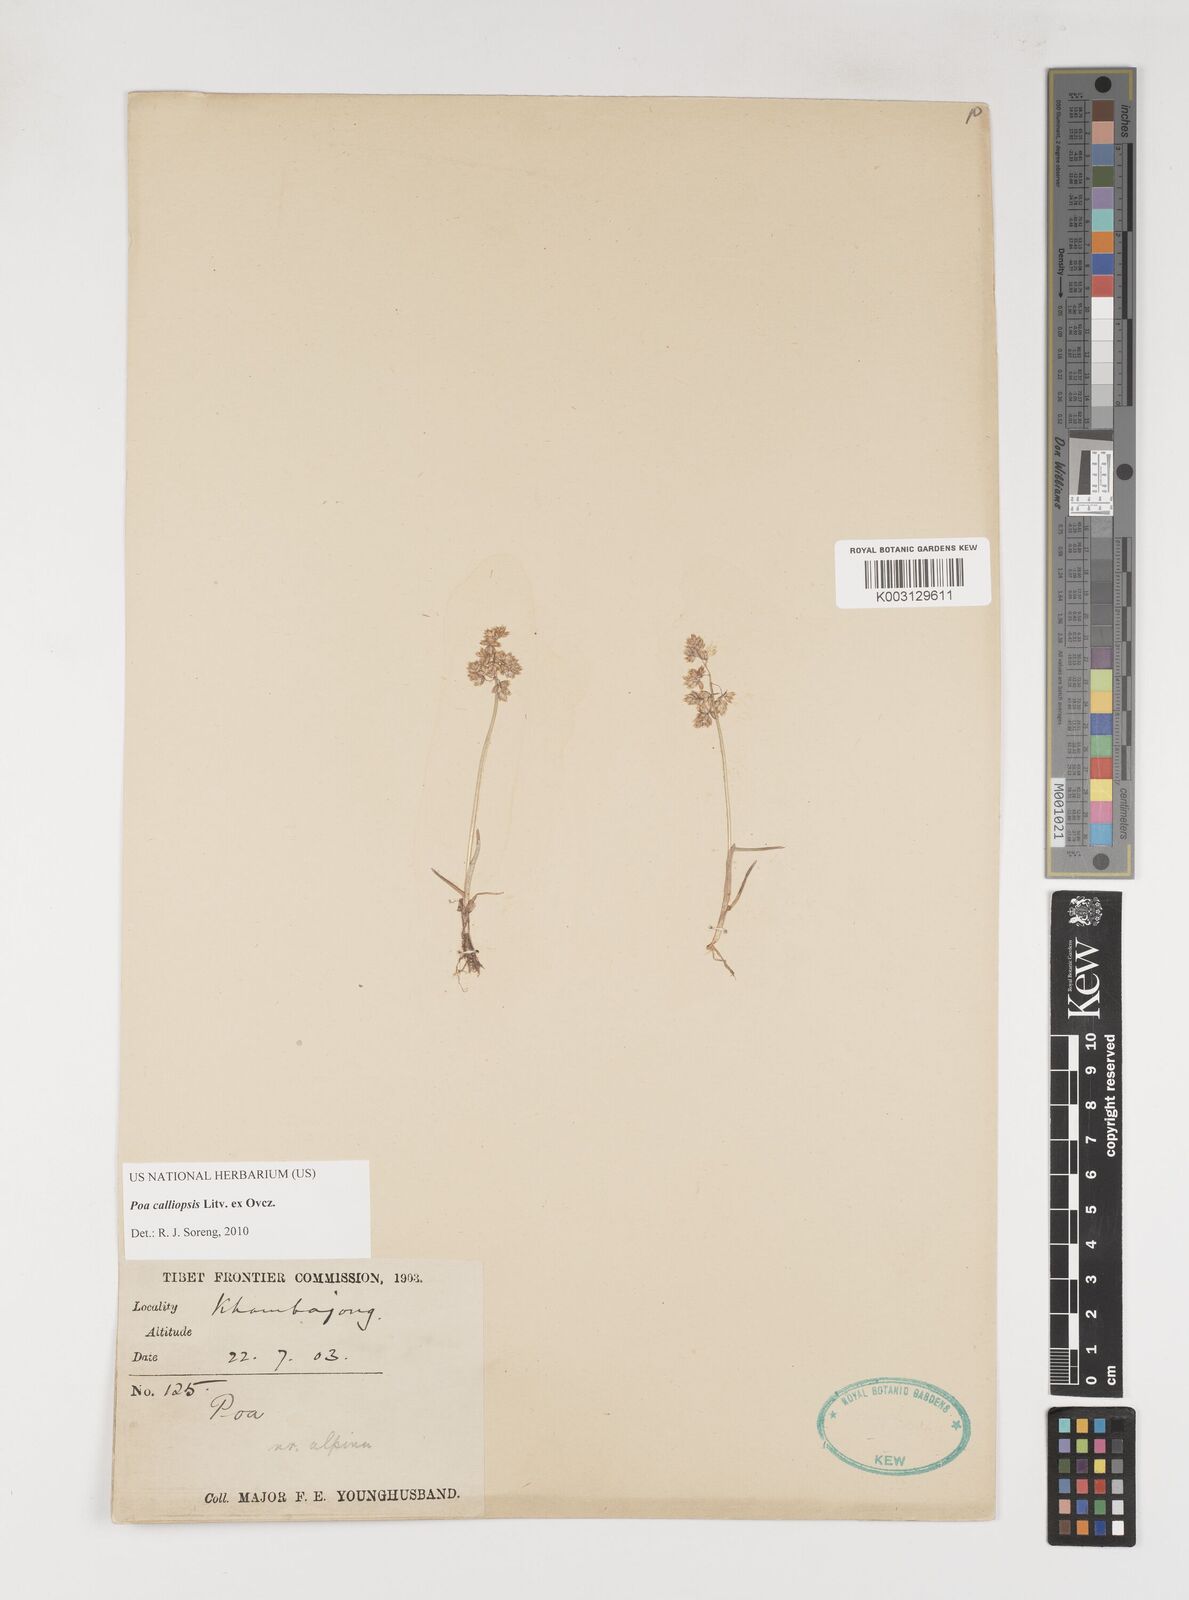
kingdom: Plantae
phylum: Tracheophyta
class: Liliopsida
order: Poales
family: Poaceae
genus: Poa
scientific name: Poa calliopsis
